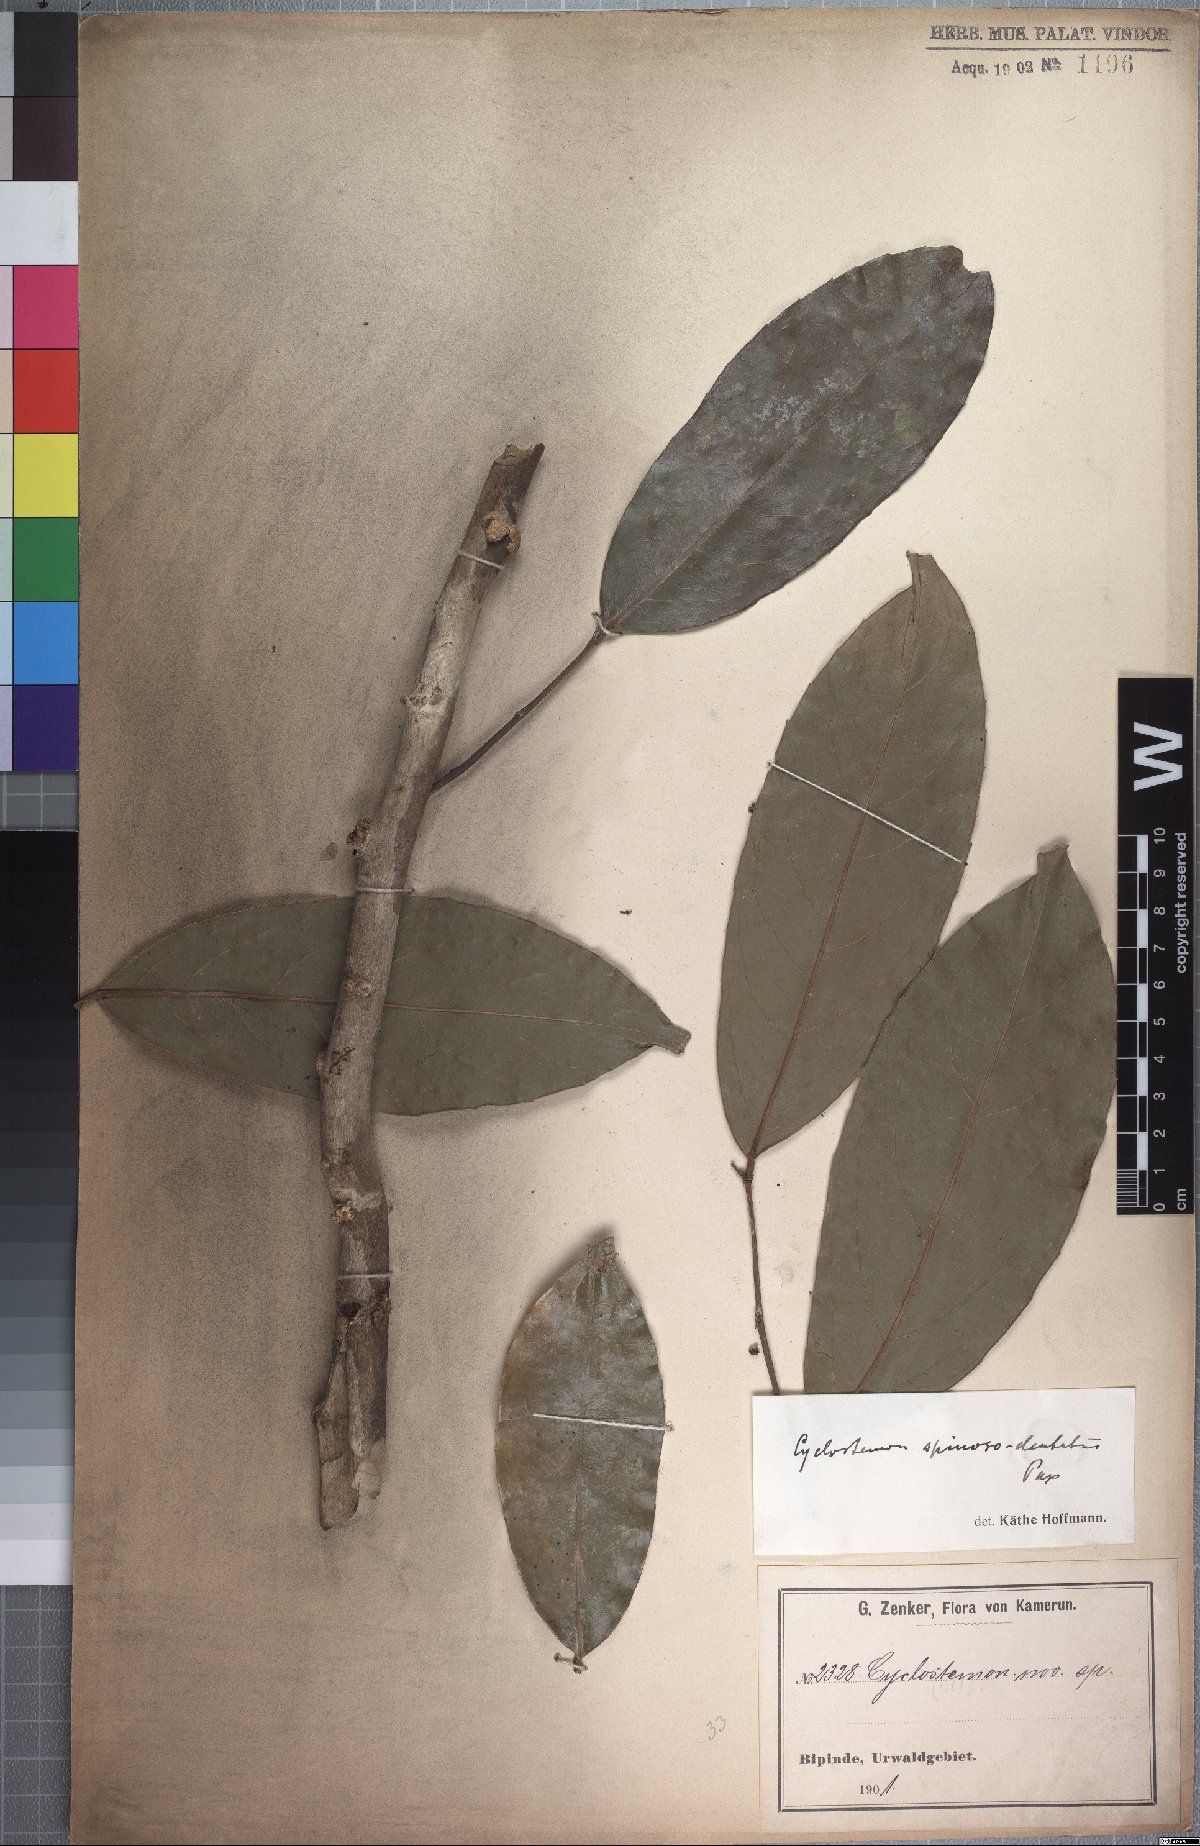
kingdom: Plantae
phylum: Tracheophyta
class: Magnoliopsida
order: Malpighiales
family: Putranjivaceae
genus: Drypetes
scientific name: Drypetes spinosodentata
